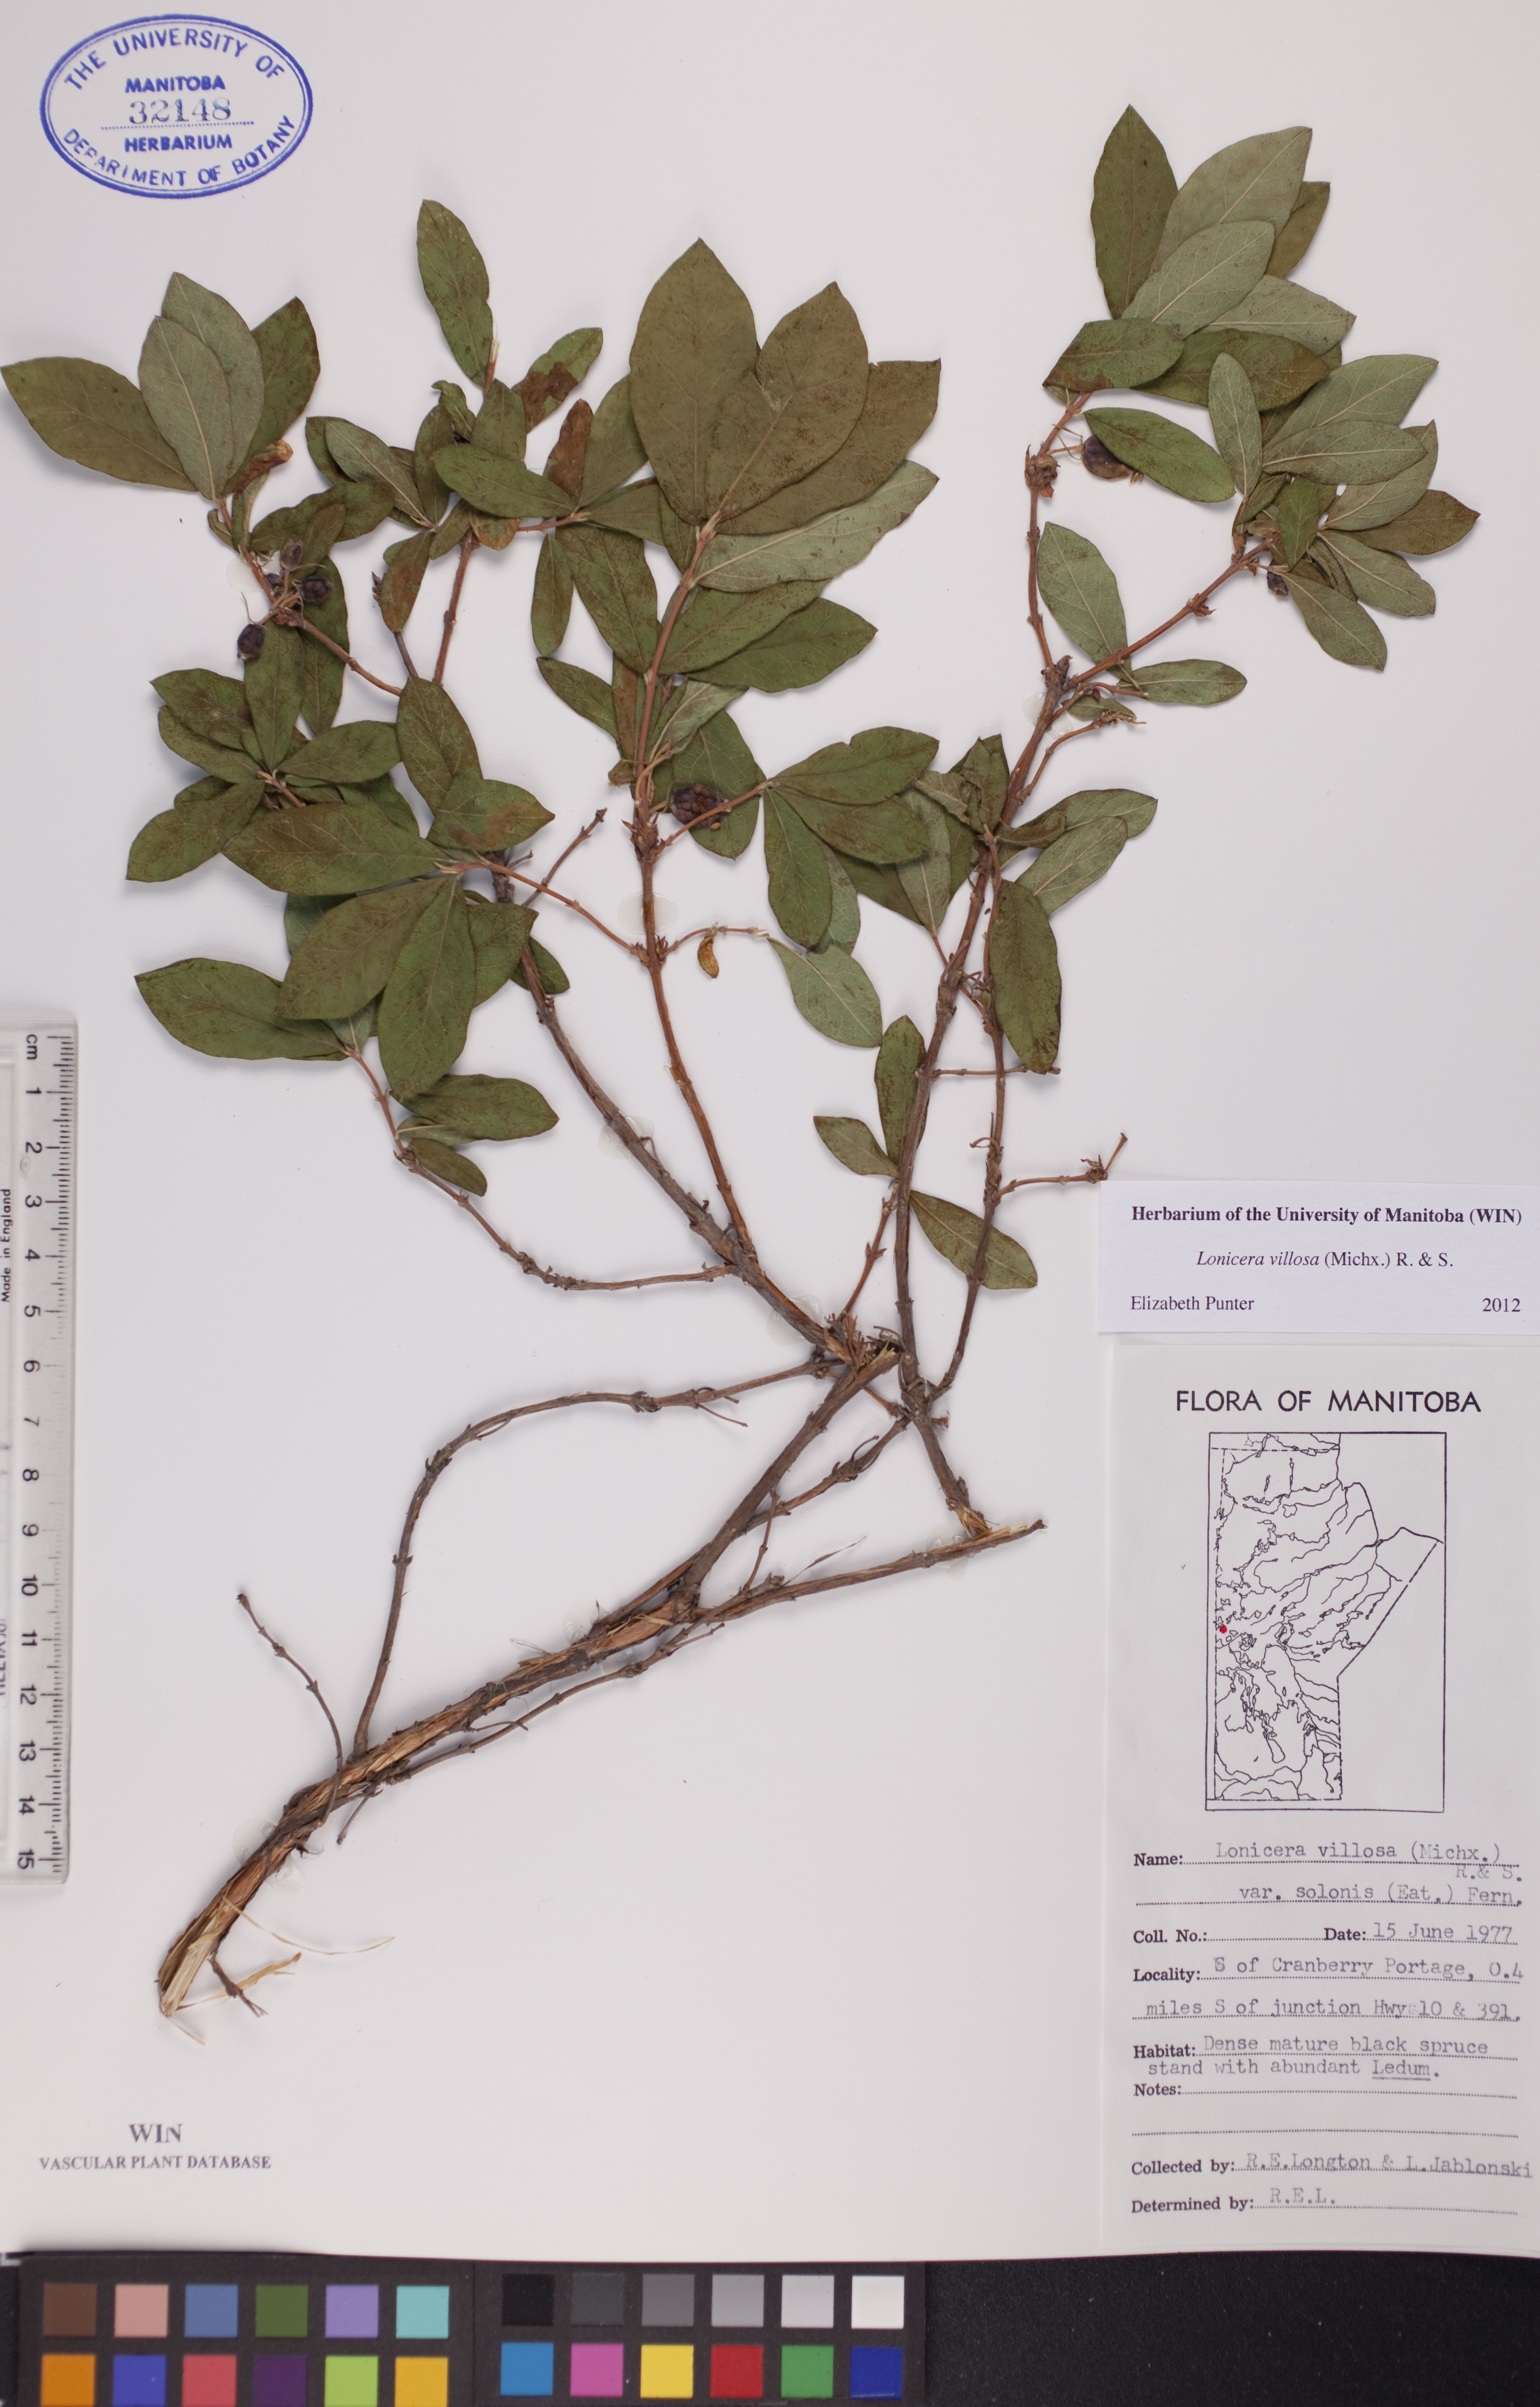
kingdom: Plantae
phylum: Tracheophyta
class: Magnoliopsida
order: Dipsacales
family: Caprifoliaceae
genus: Lonicera
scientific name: Lonicera villosa
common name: Mountain fly-honeysuckle
